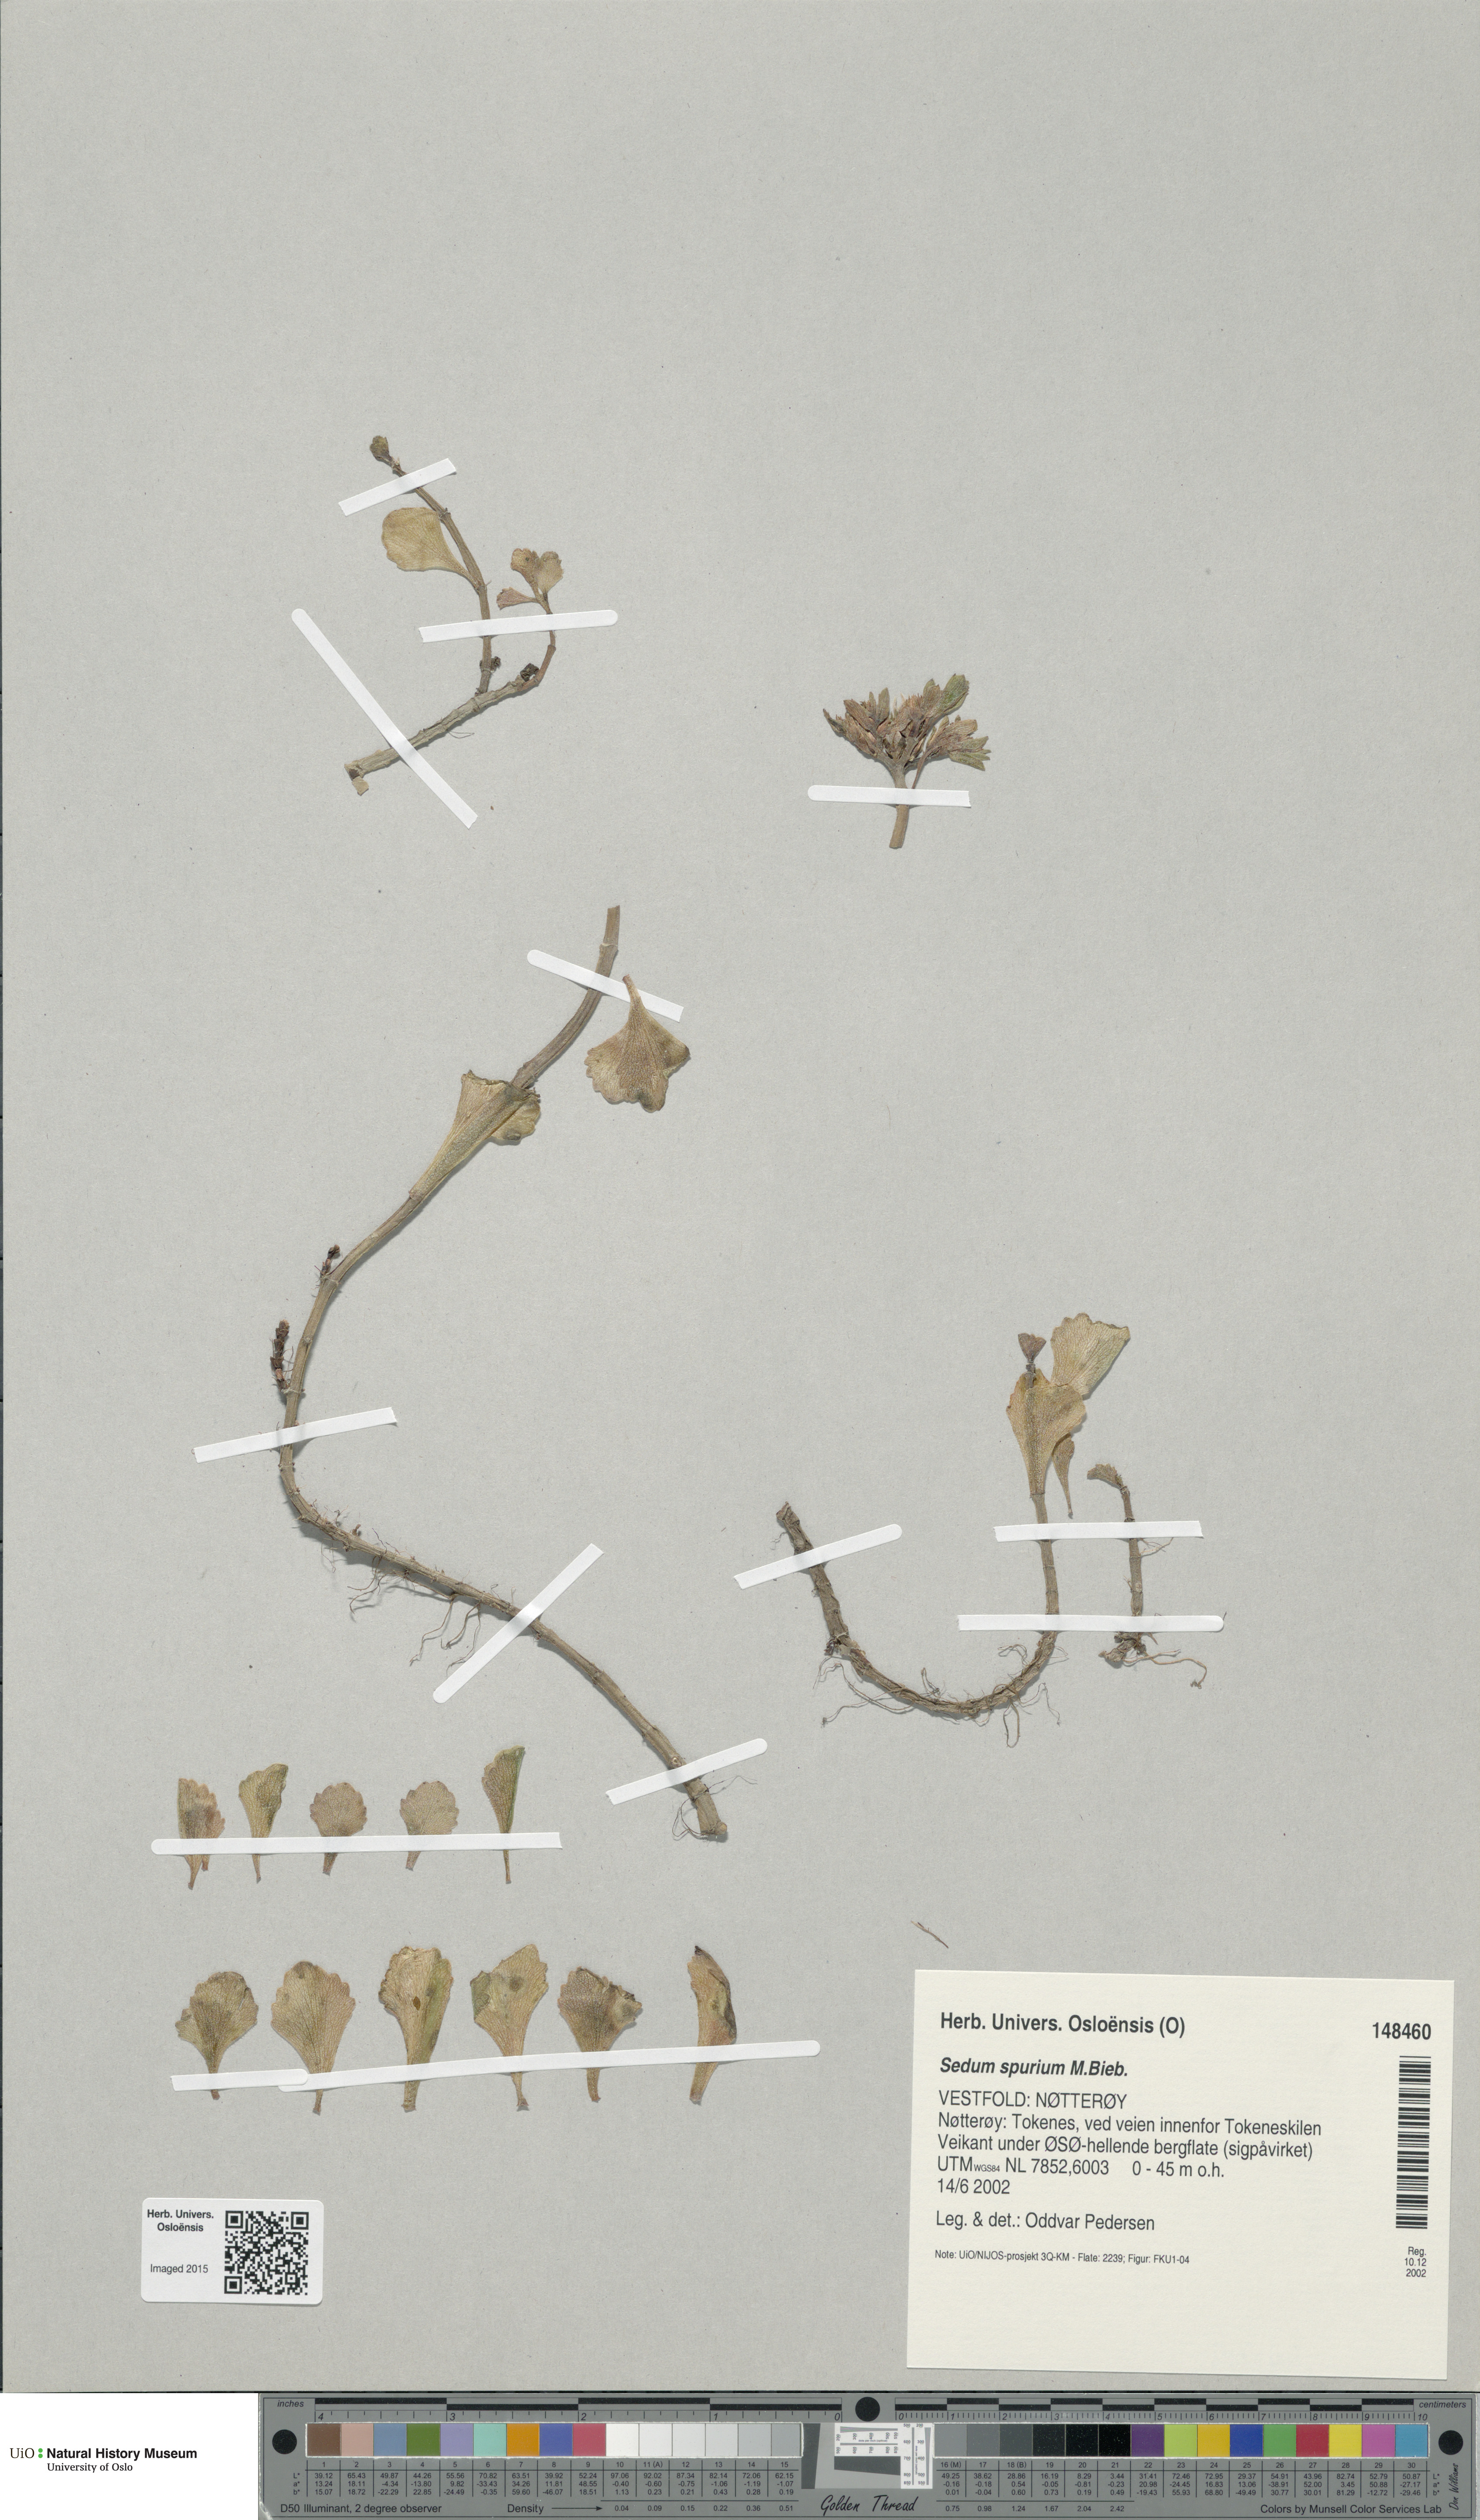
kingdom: Plantae
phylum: Tracheophyta
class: Magnoliopsida
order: Saxifragales
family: Crassulaceae
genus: Phedimus
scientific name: Phedimus spurius
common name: Caucasian stonecrop
